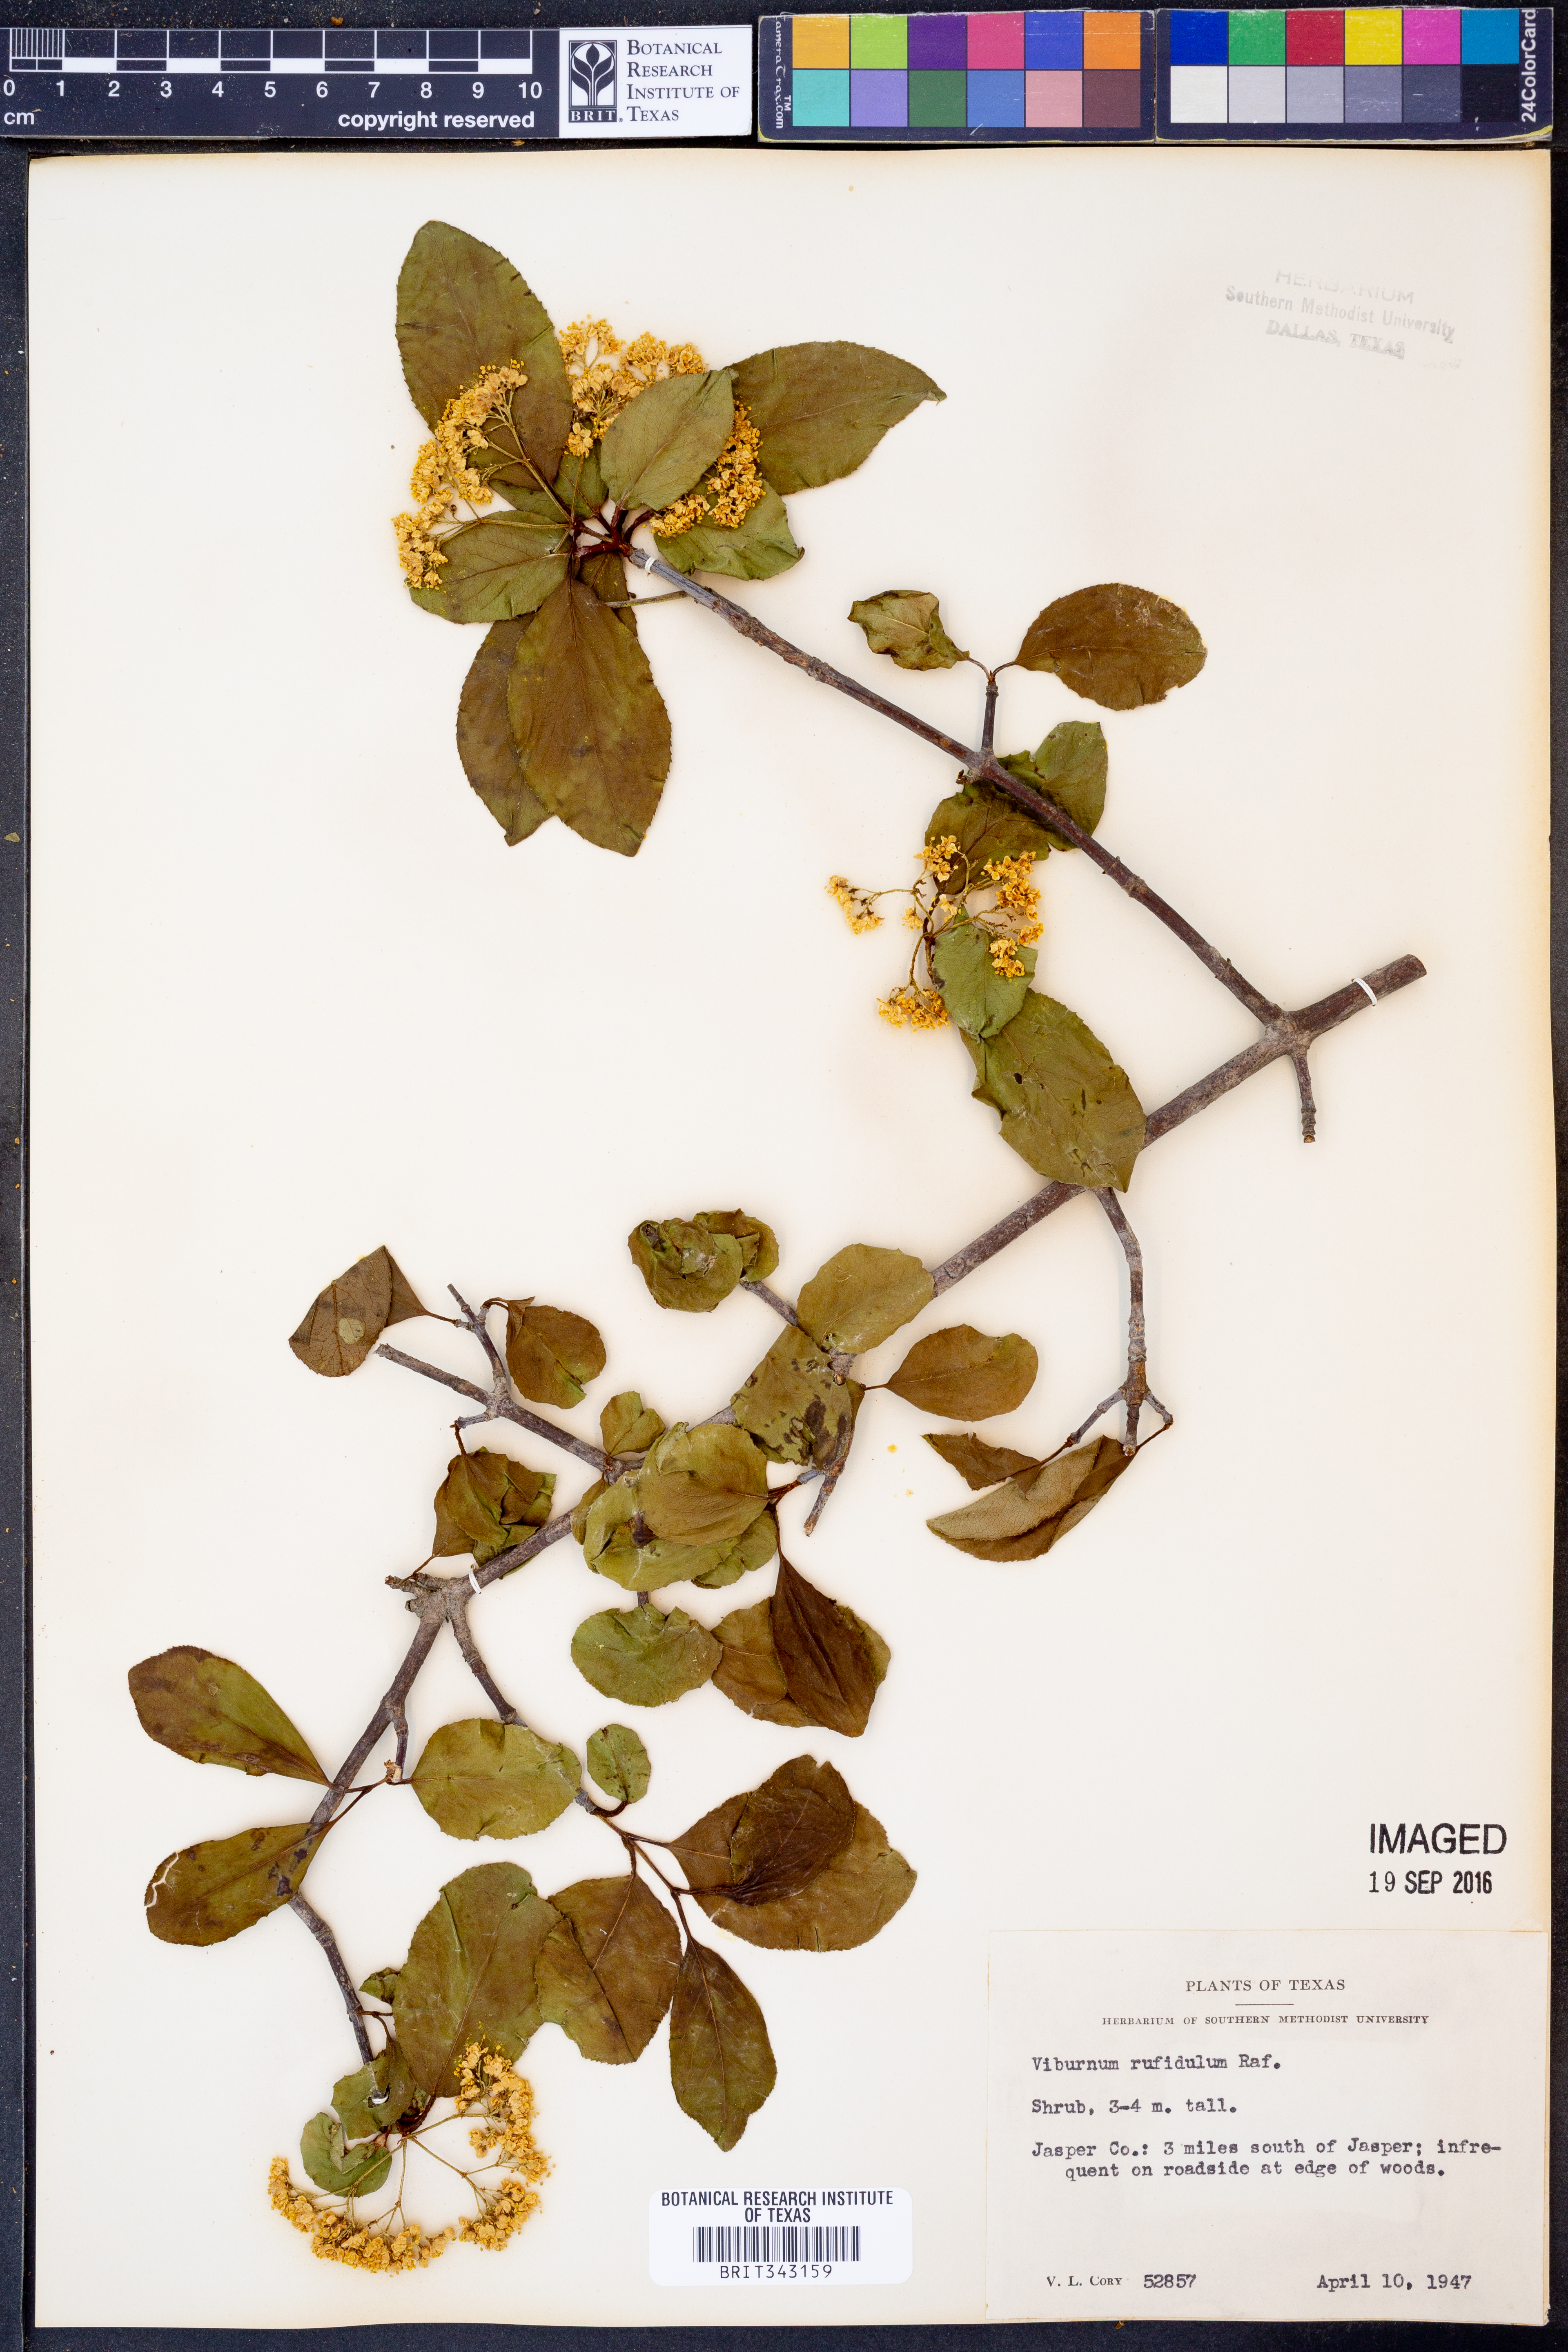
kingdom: Plantae
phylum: Tracheophyta
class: Magnoliopsida
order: Dipsacales
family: Viburnaceae
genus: Viburnum
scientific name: Viburnum rufidulum
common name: Blue haw
